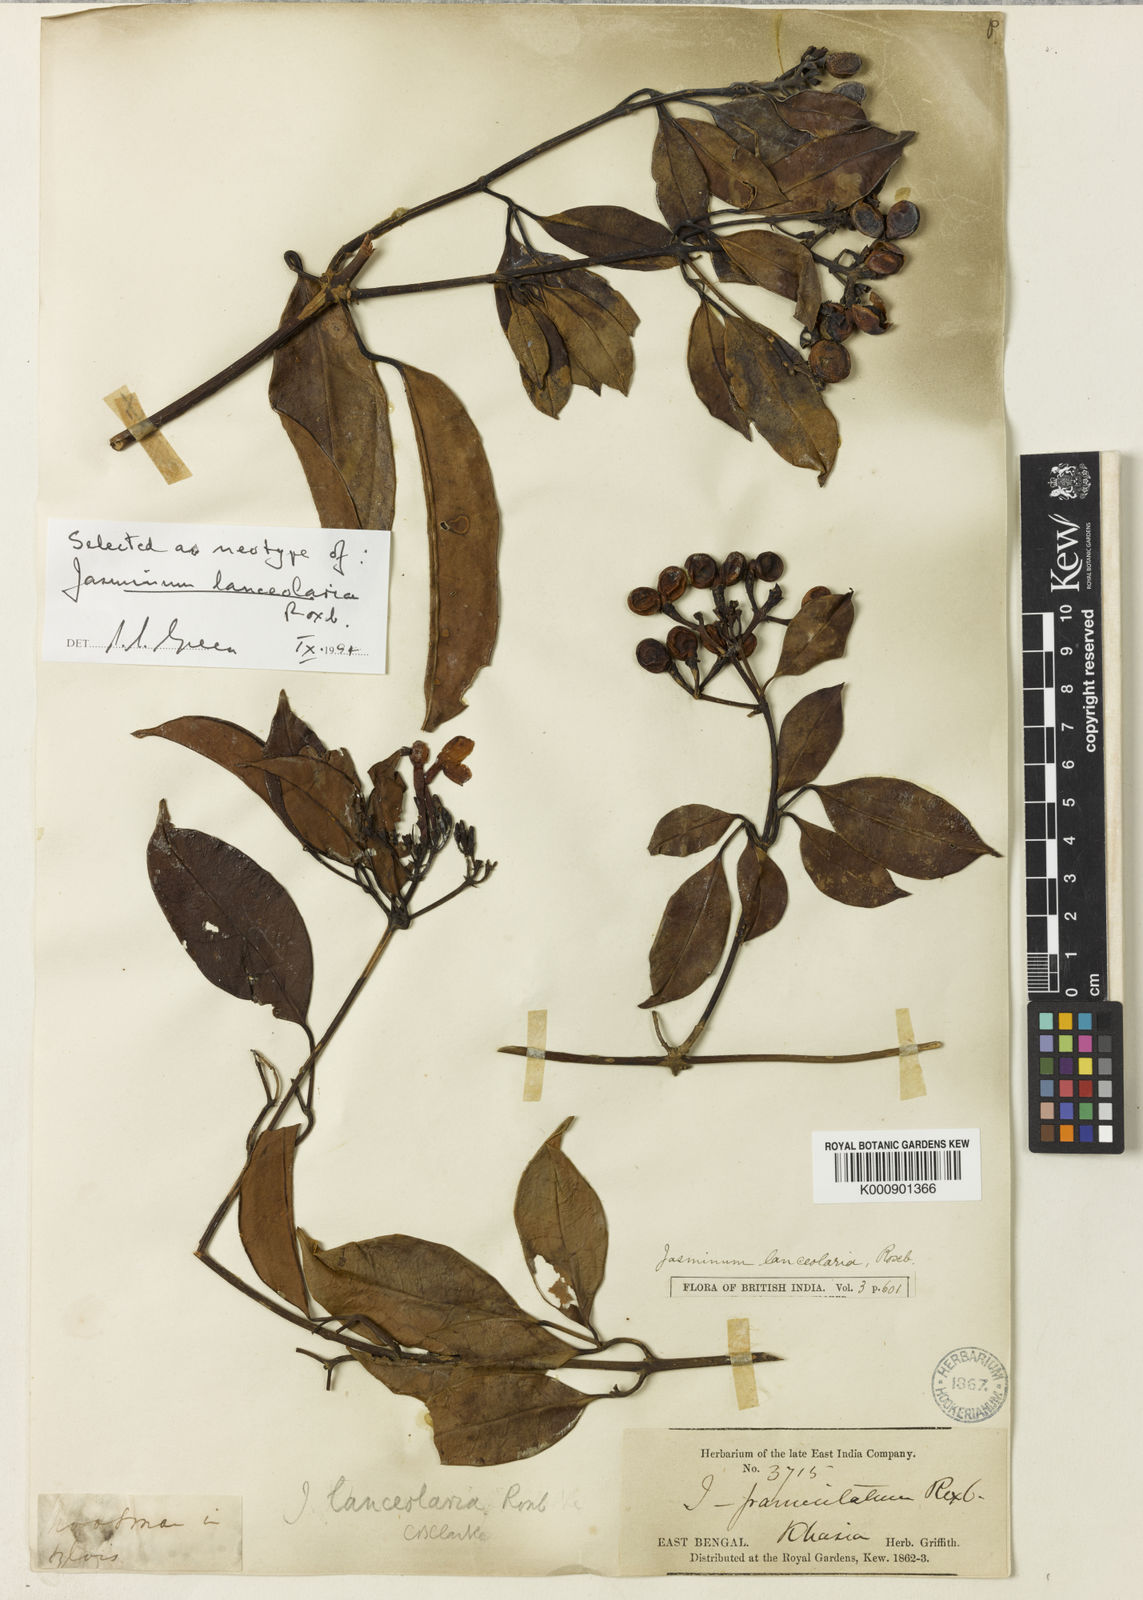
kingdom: Plantae
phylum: Tracheophyta
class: Magnoliopsida
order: Lamiales
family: Oleaceae
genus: Jasminum
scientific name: Jasminum lanceolaria
